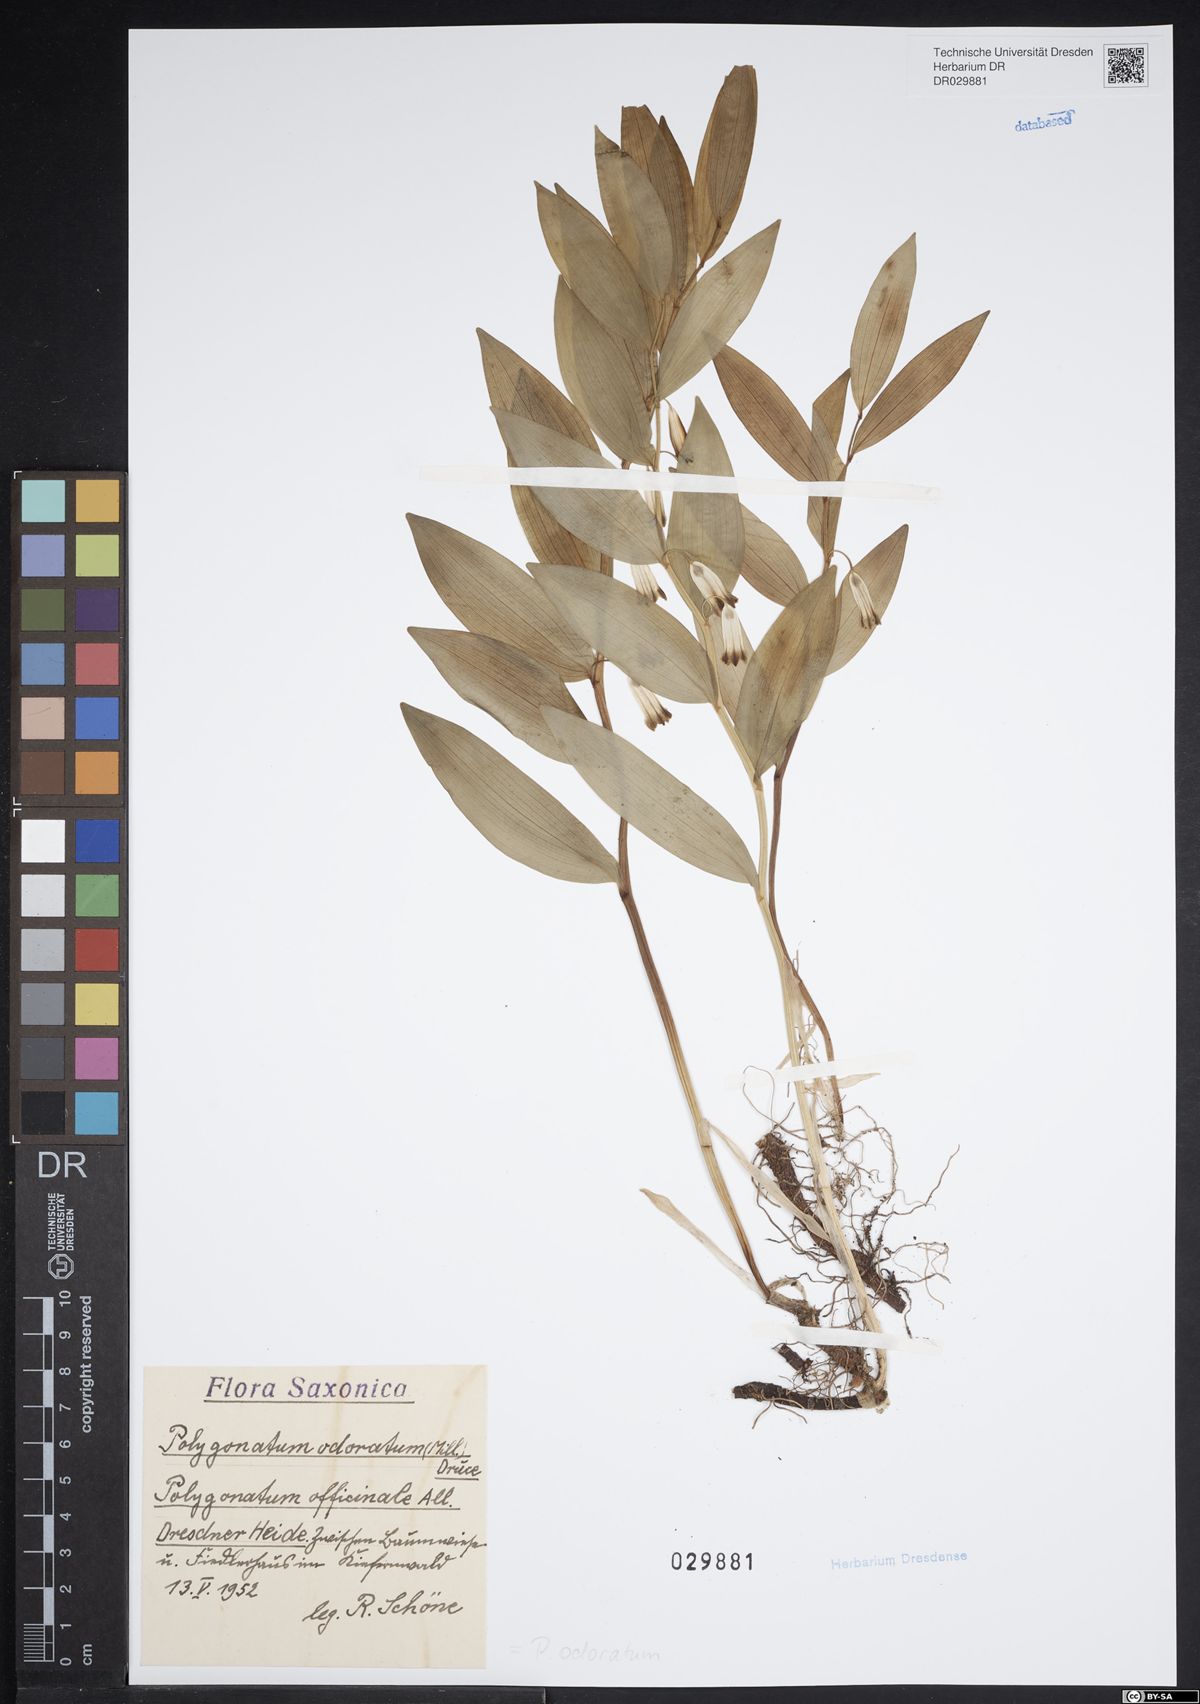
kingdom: Plantae
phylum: Tracheophyta
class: Liliopsida
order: Asparagales
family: Asparagaceae
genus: Polygonatum
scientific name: Polygonatum odoratum
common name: Angular solomon's-seal
